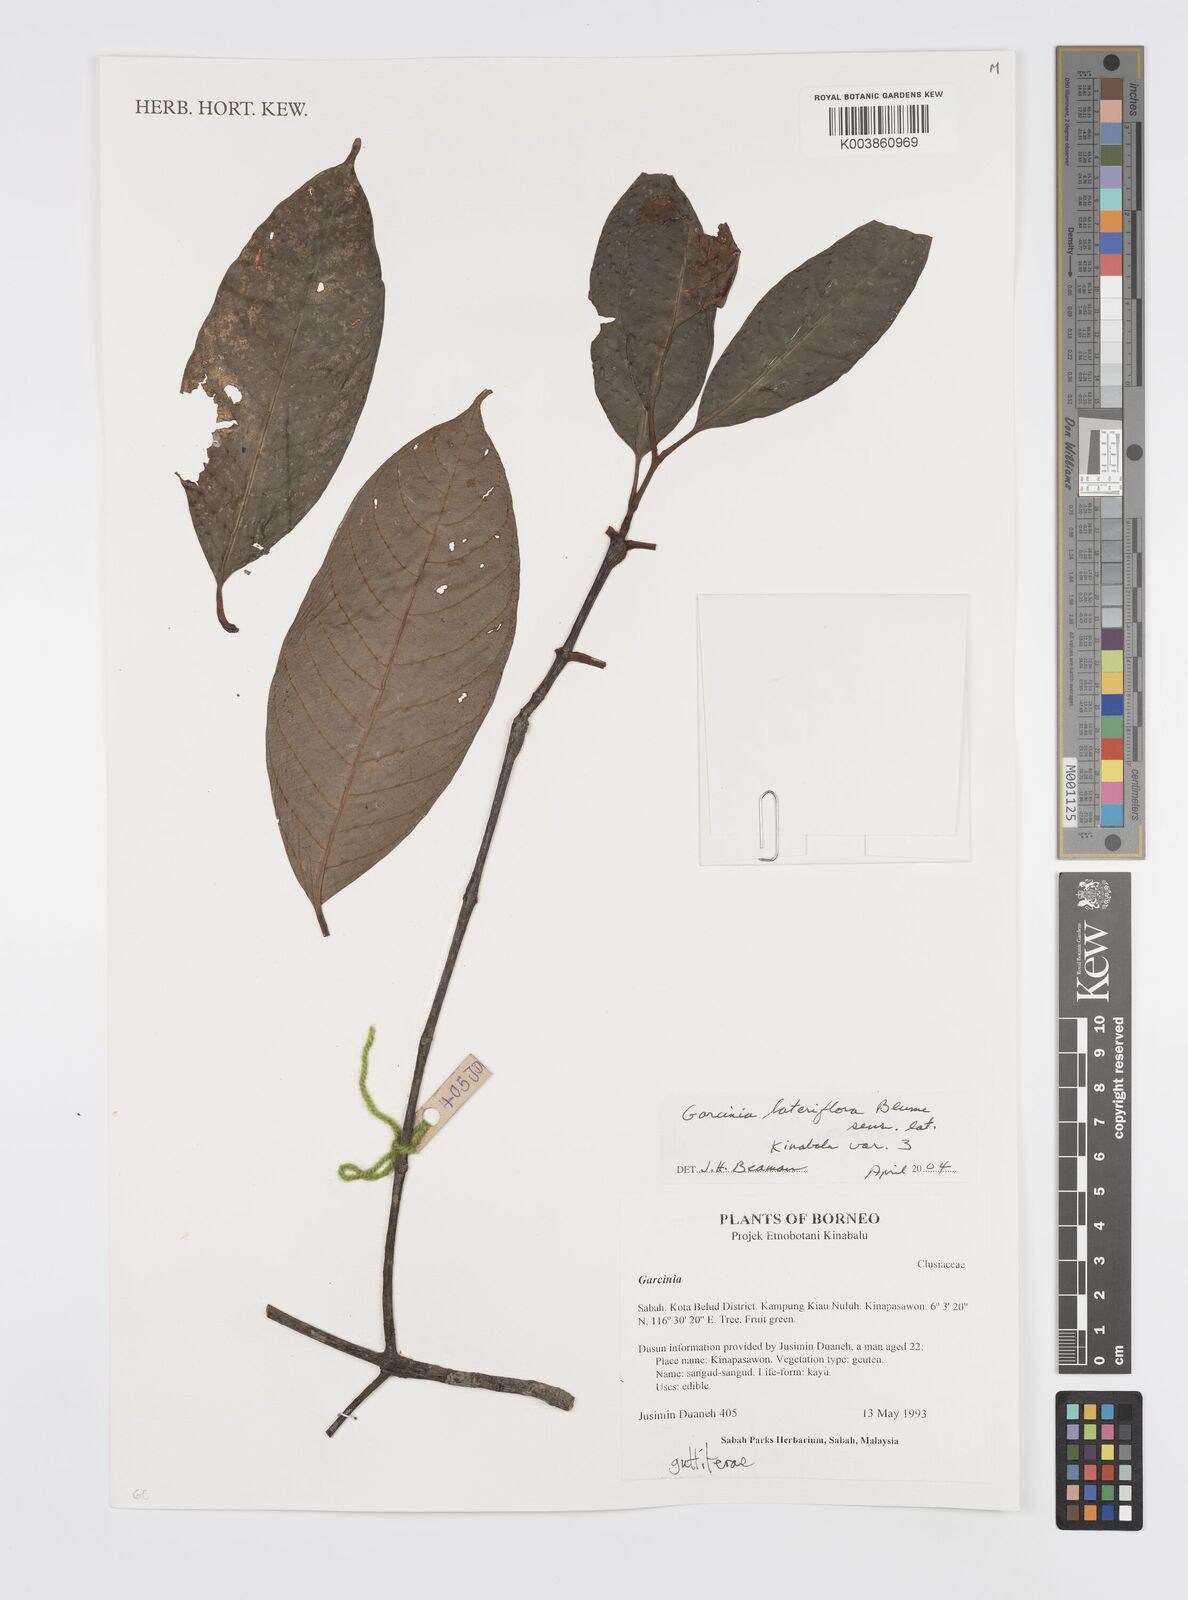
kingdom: Plantae
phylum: Tracheophyta
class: Magnoliopsida
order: Malpighiales
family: Clusiaceae
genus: Garcinia
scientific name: Garcinia lateriflora
